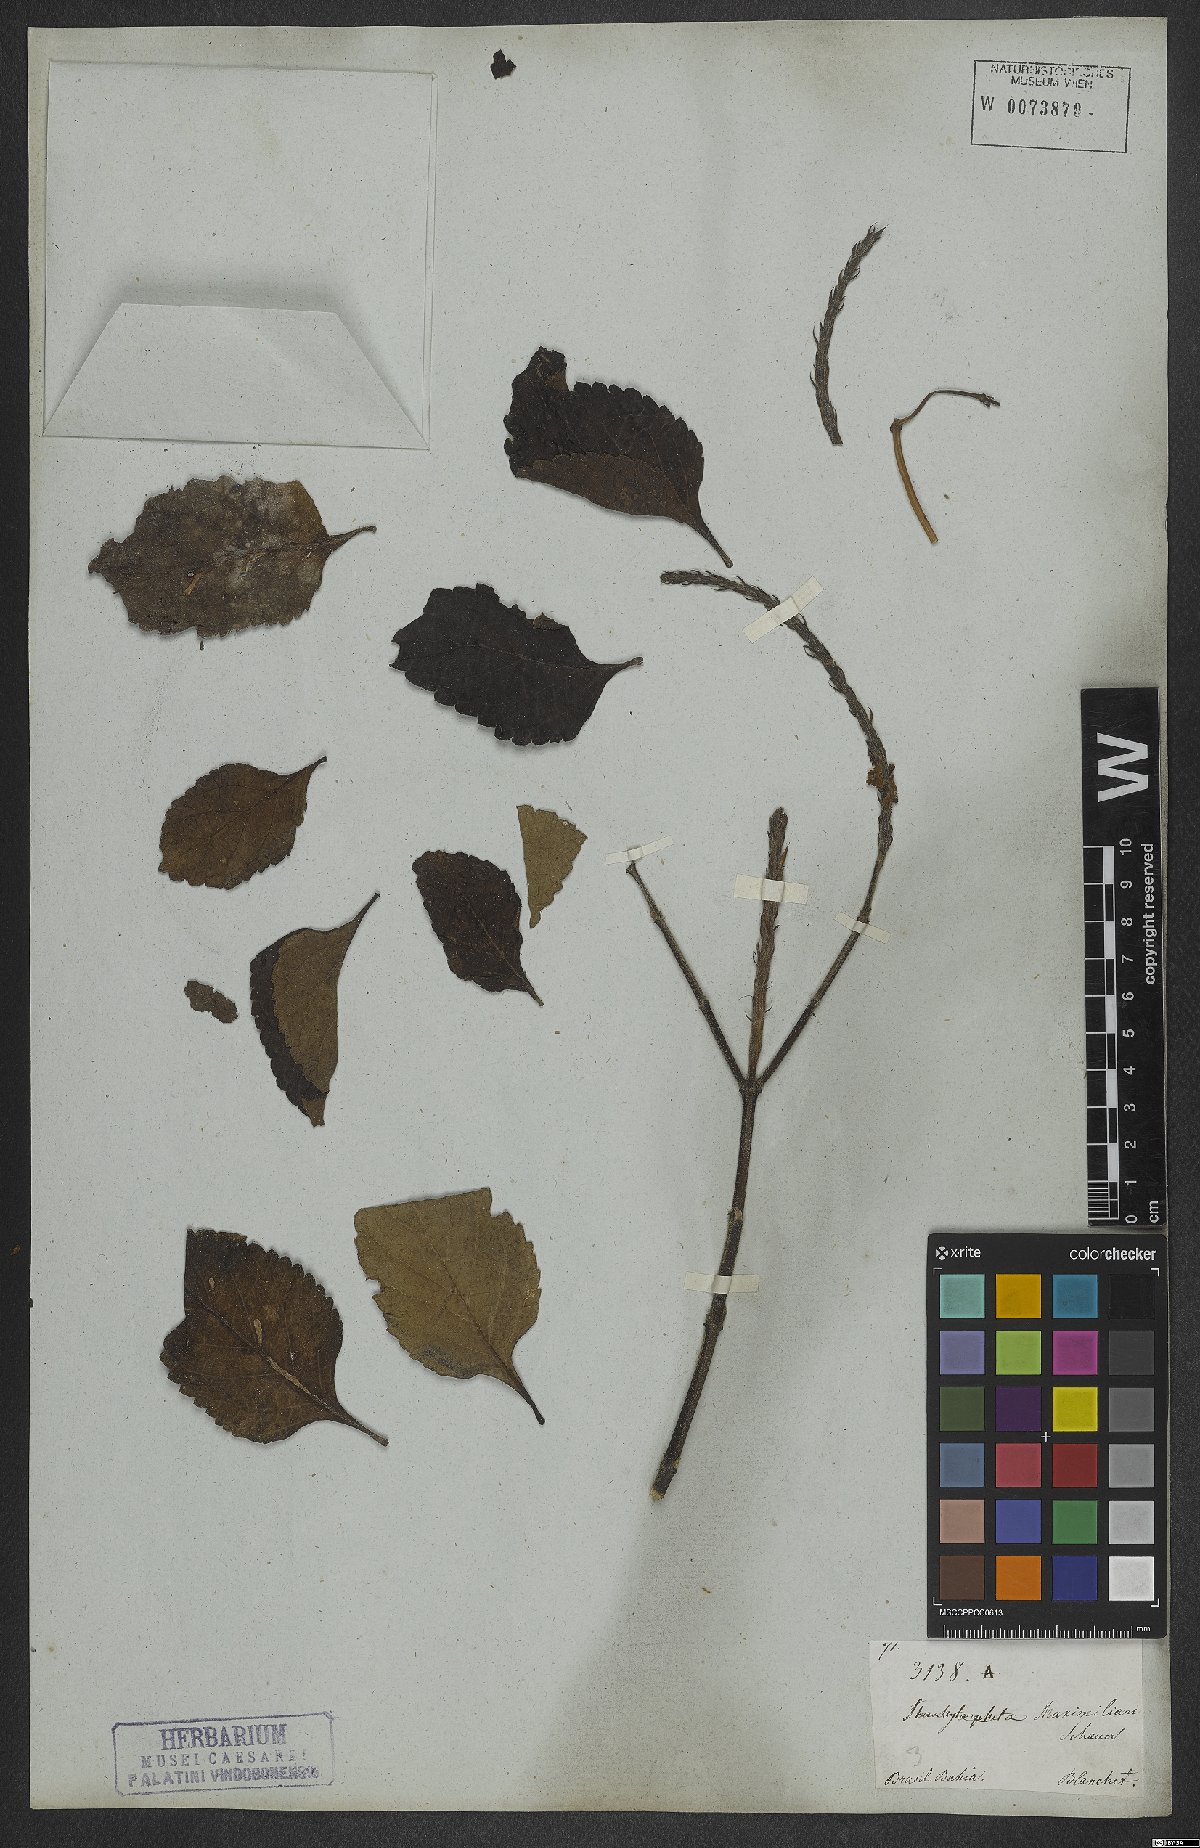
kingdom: Plantae
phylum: Tracheophyta
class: Magnoliopsida
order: Lamiales
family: Verbenaceae
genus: Stachytarpheta
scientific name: Stachytarpheta maximiliani
